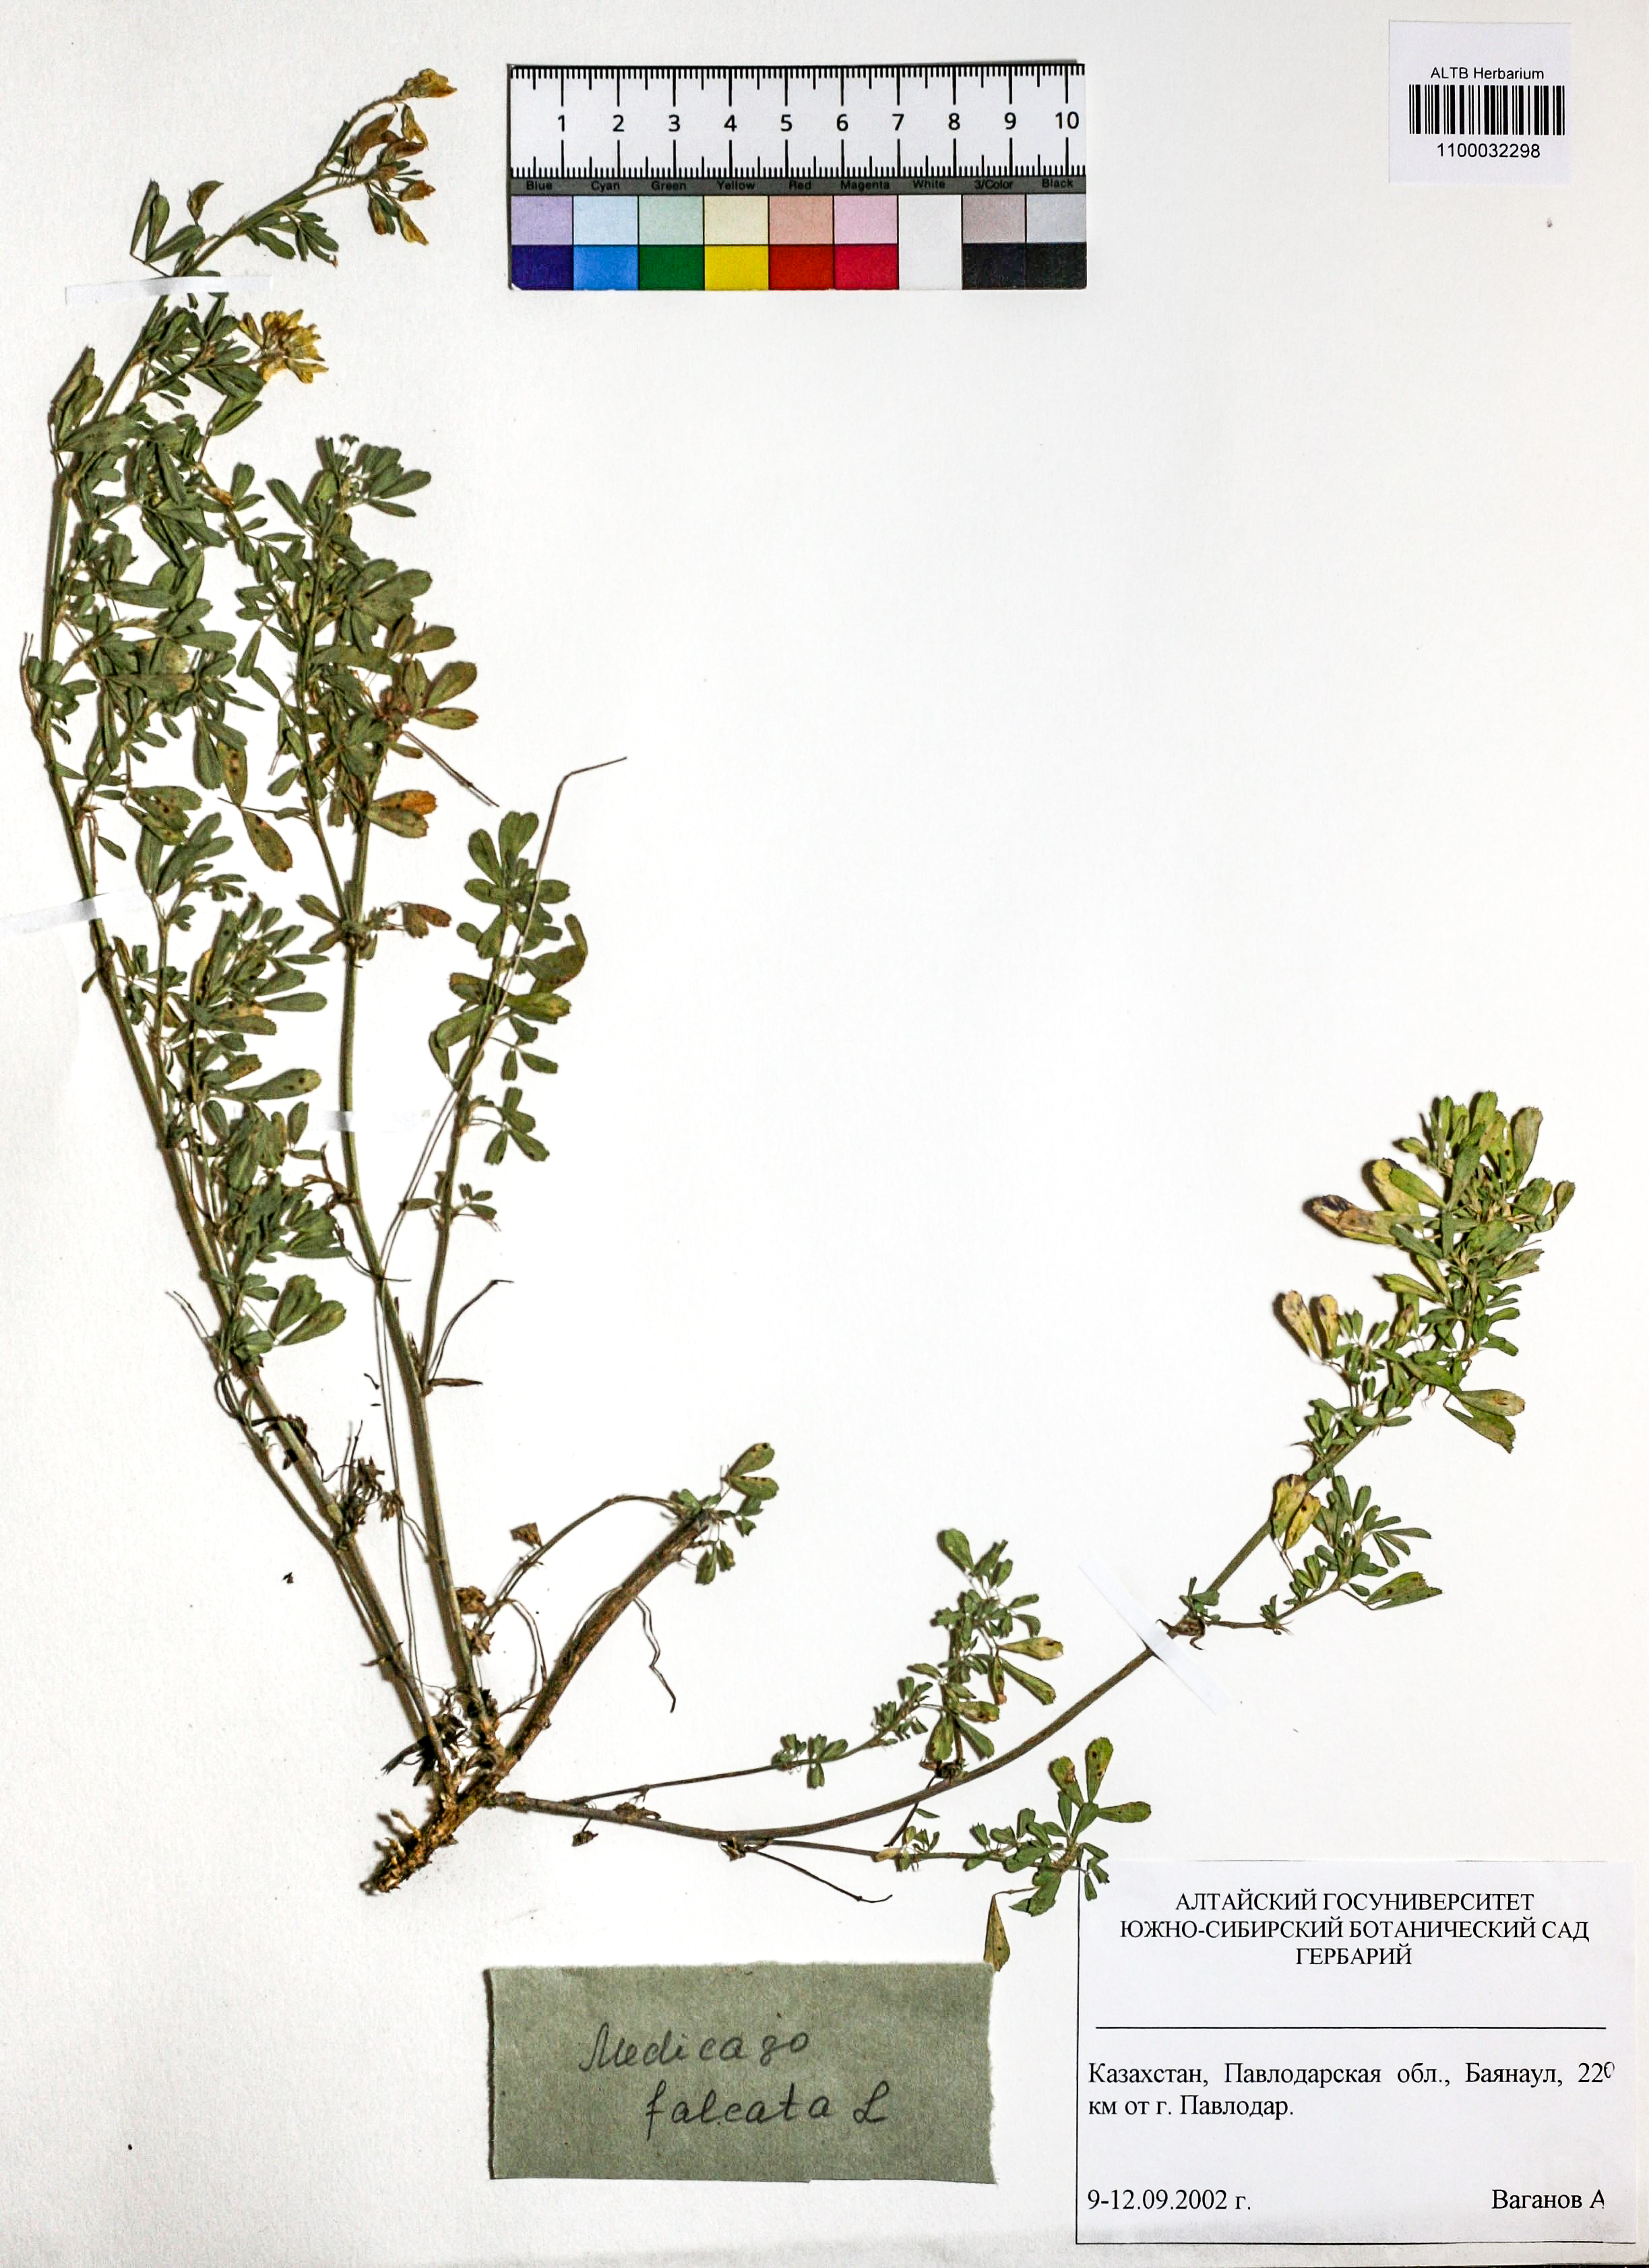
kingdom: Plantae
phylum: Tracheophyta
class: Magnoliopsida
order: Fabales
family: Fabaceae
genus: Medicago
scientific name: Medicago falcata
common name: Sickle medick
